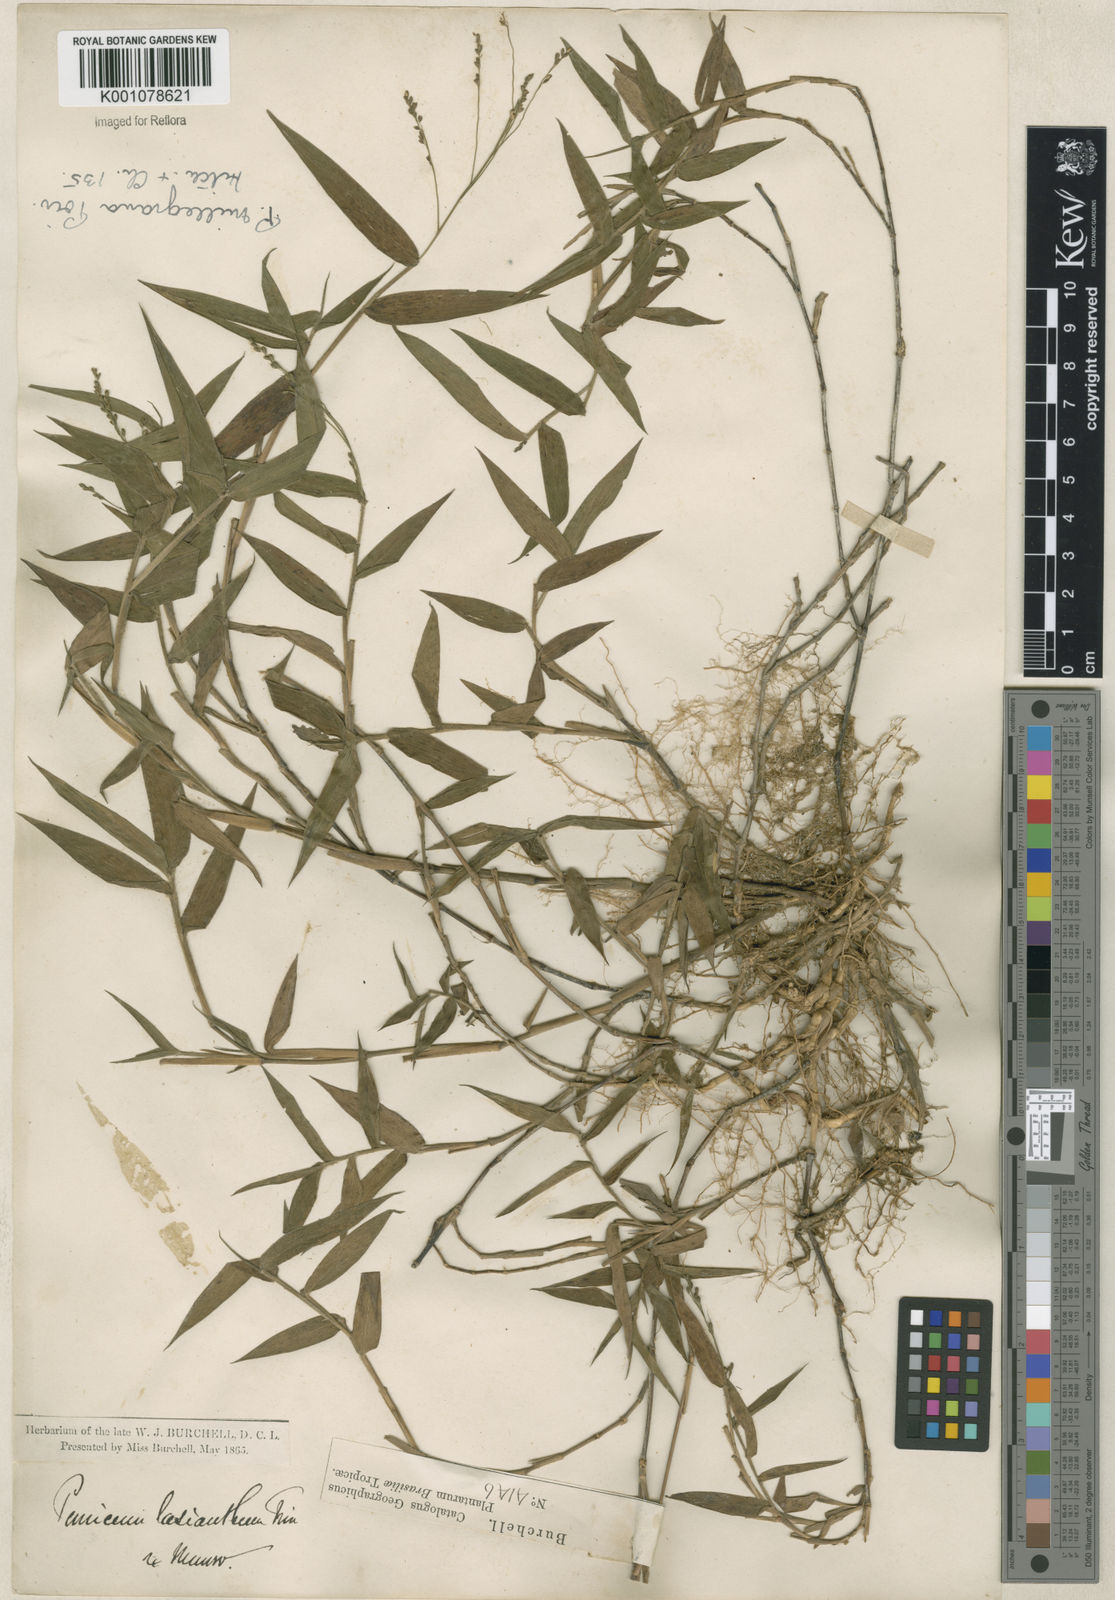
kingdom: Plantae
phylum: Tracheophyta
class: Liliopsida
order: Poales
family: Poaceae
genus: Panicum
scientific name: Panicum sellowii
